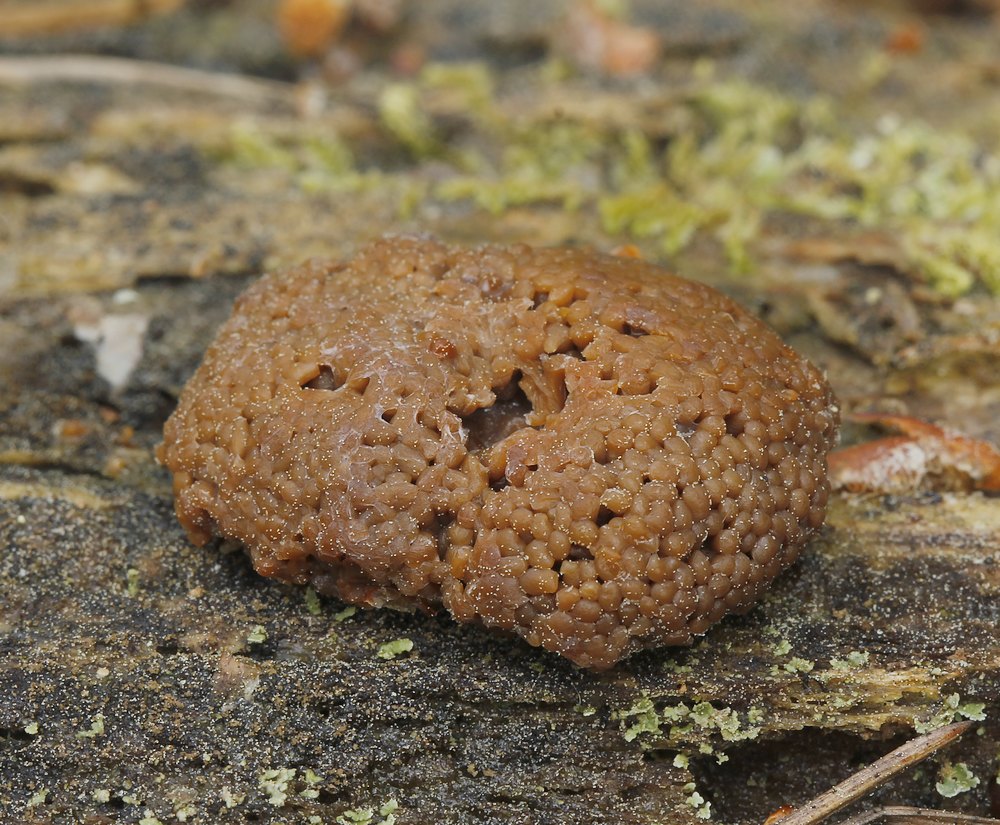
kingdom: Protozoa
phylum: Mycetozoa
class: Myxomycetes
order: Cribrariales
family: Tubiferaceae
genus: Tubifera
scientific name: Tubifera ferruginosa
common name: kanel-støvrør
